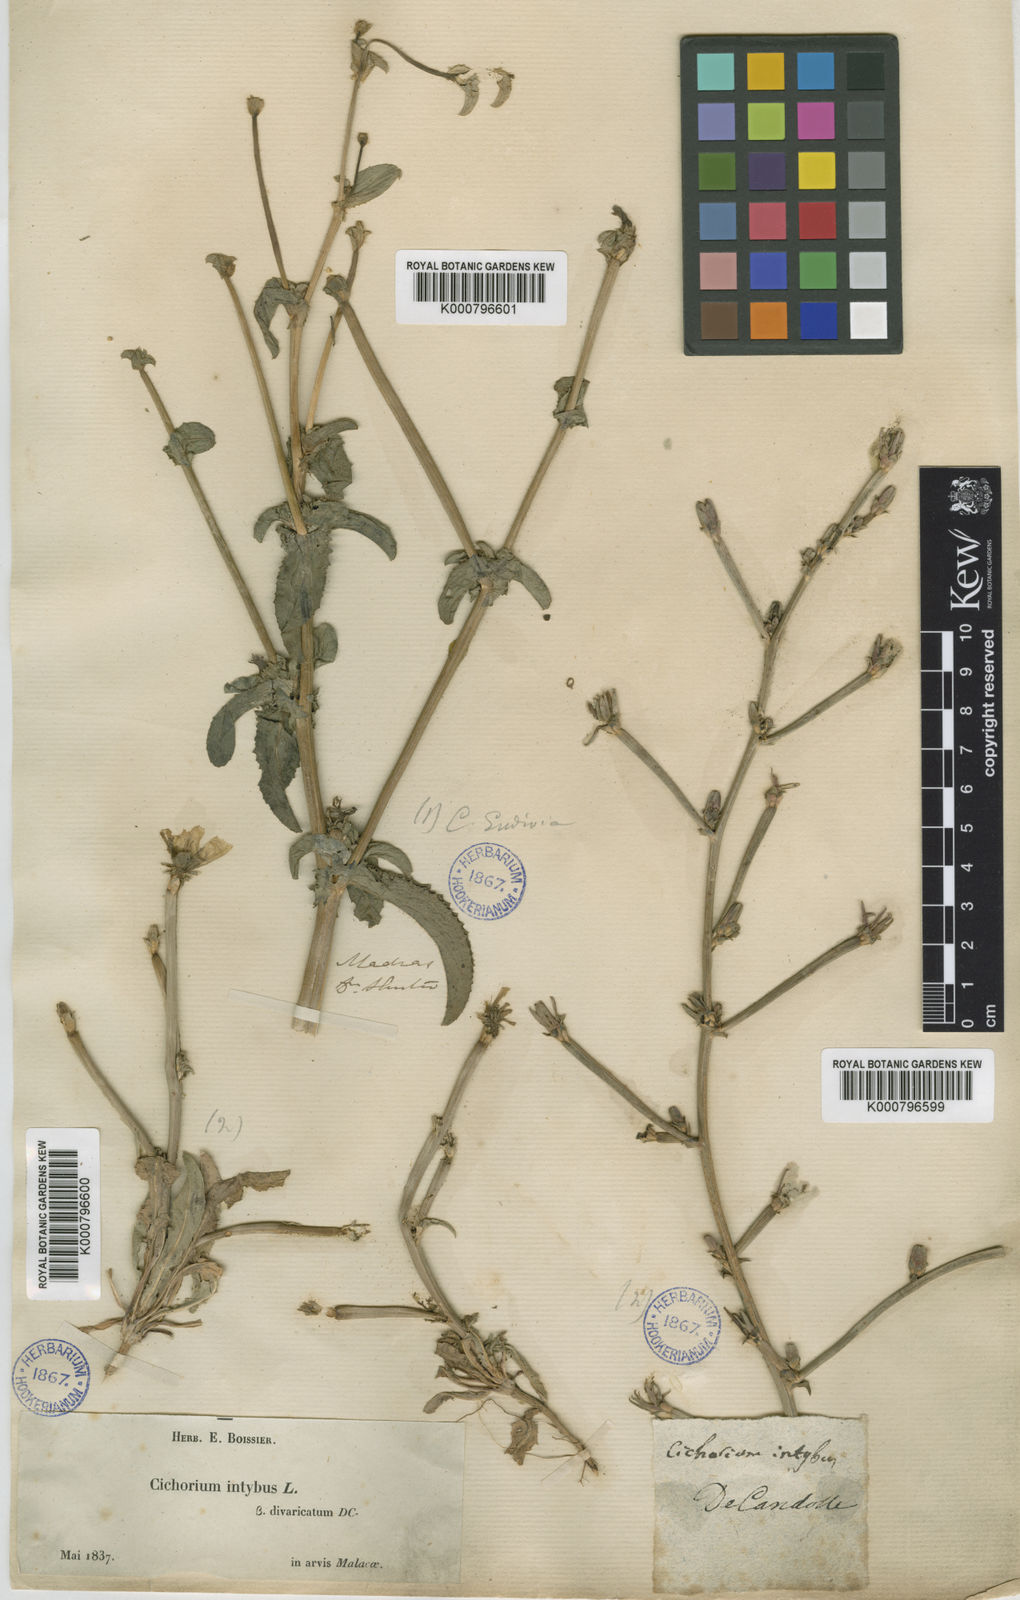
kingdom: Plantae
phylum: Tracheophyta
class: Magnoliopsida
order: Asterales
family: Asteraceae
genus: Cichorium
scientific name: Cichorium intybus
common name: Chicory
